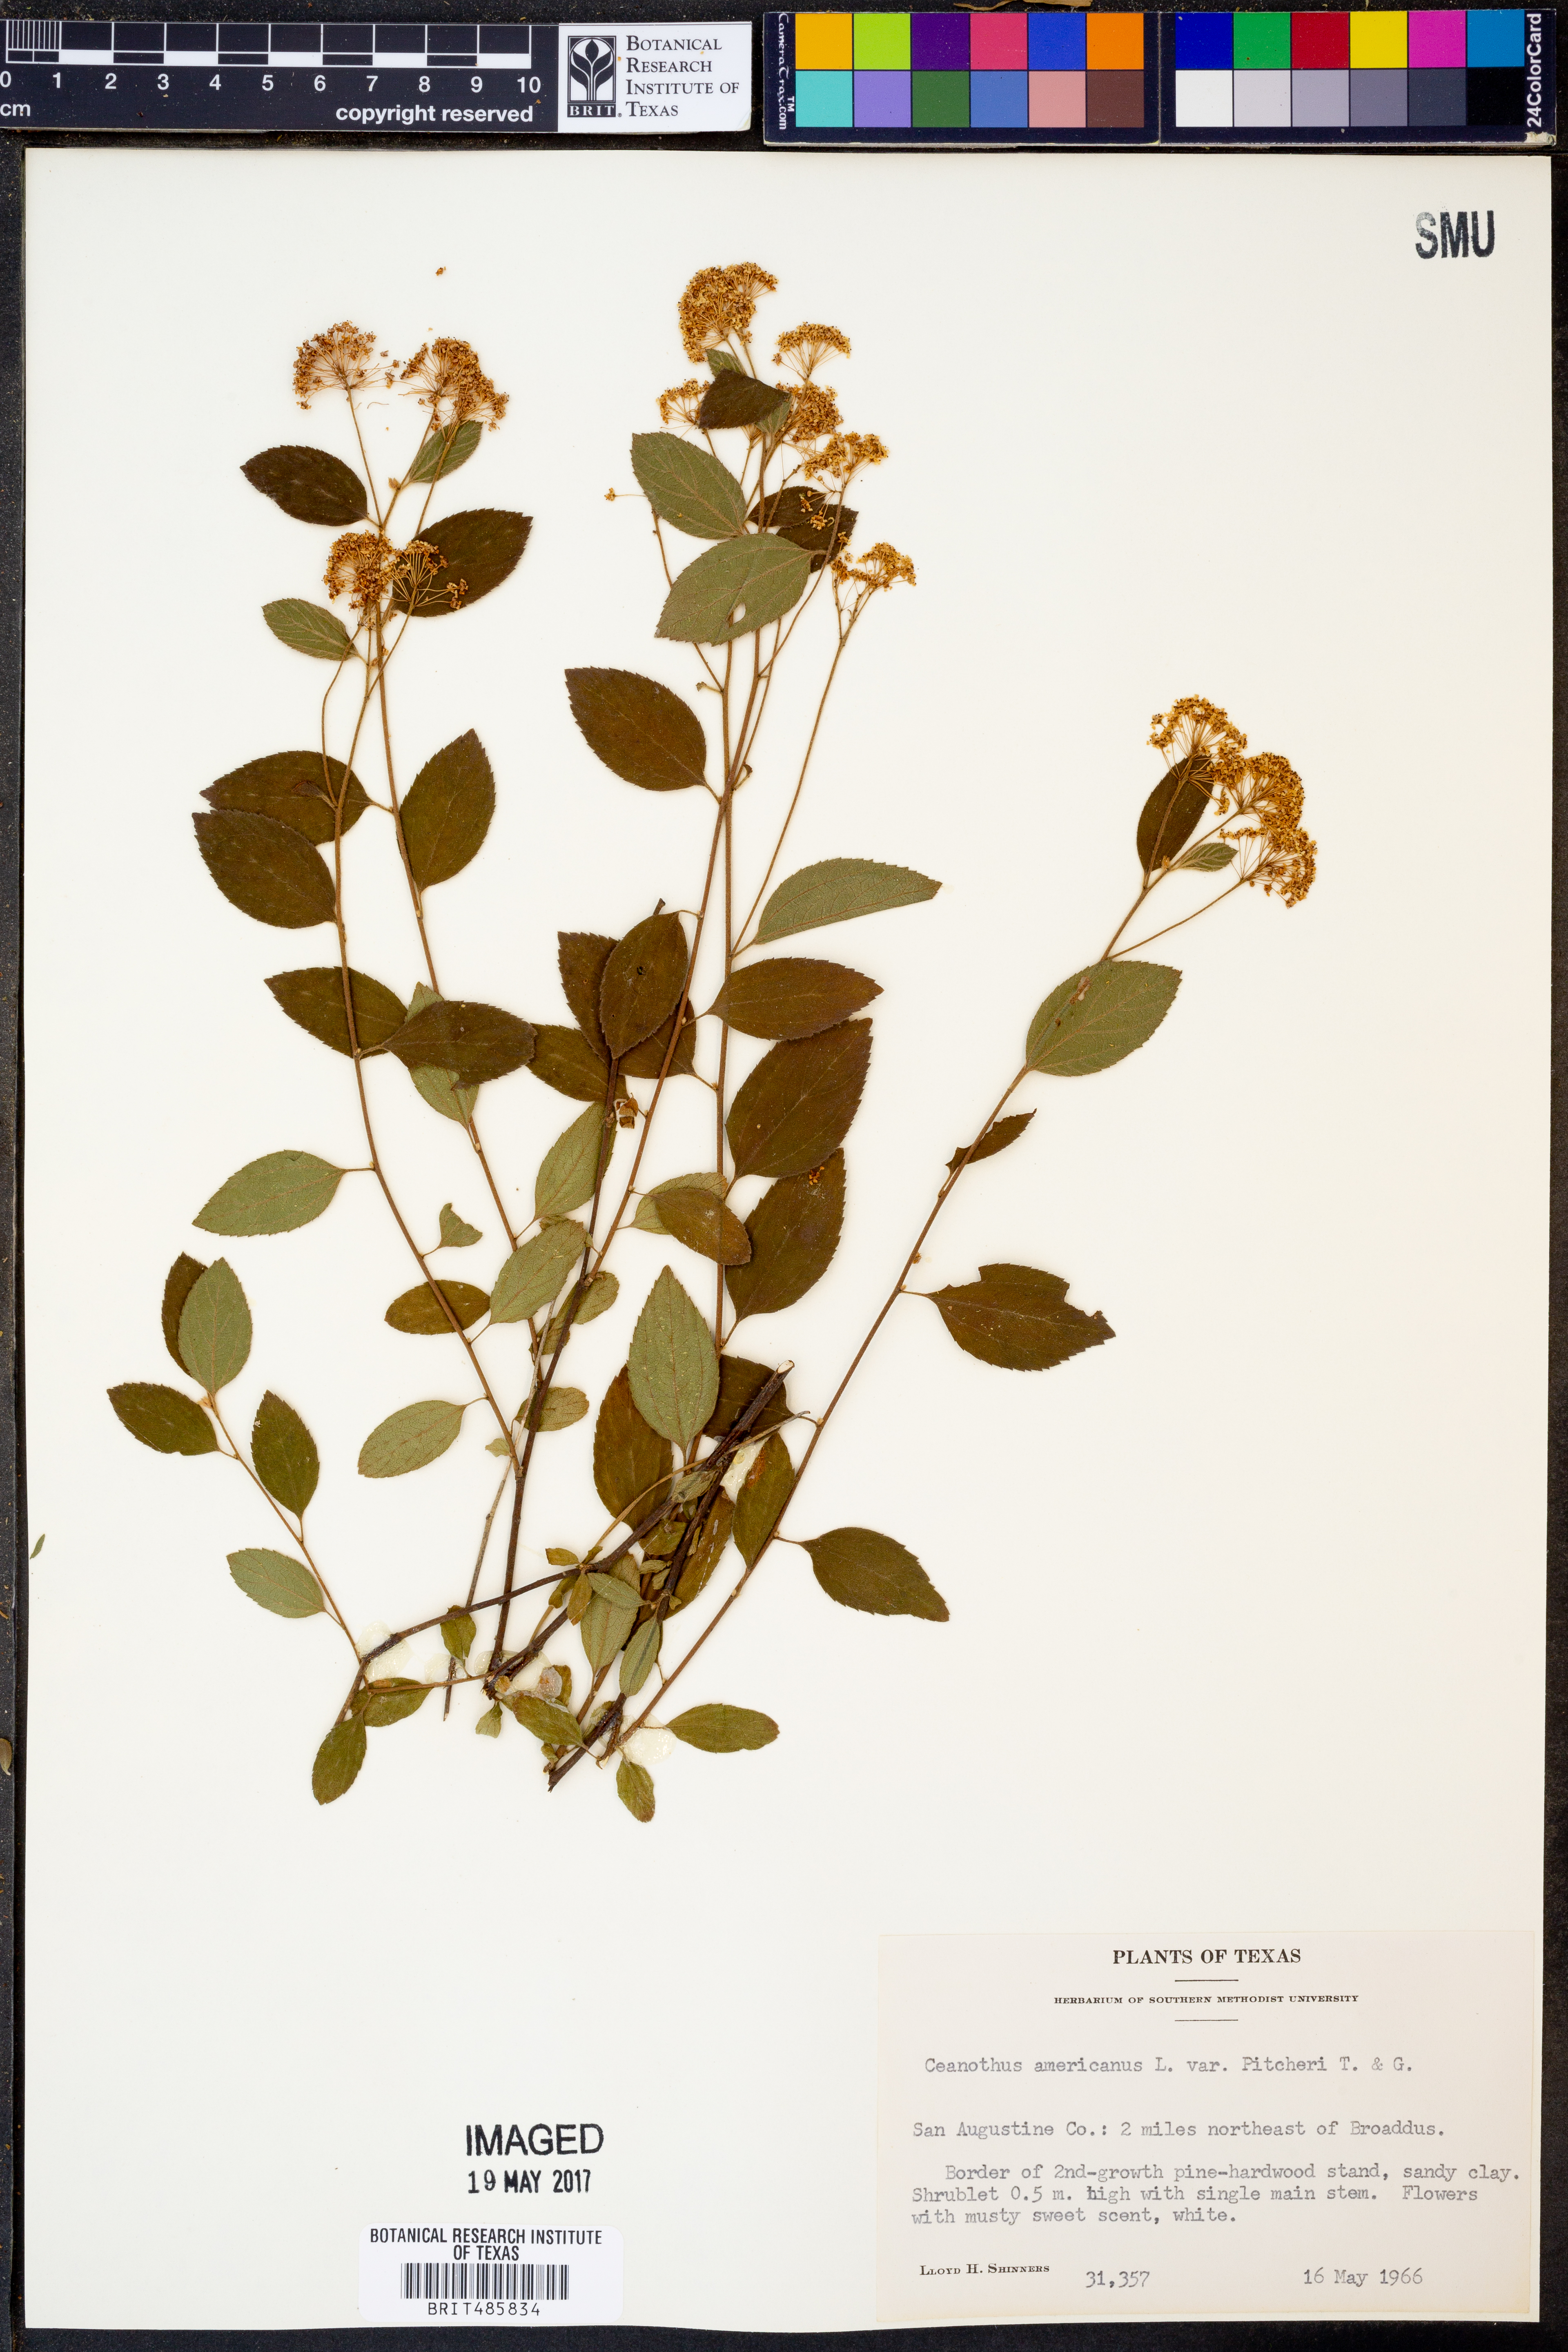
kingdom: Plantae
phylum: Tracheophyta
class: Magnoliopsida
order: Rosales
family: Rhamnaceae
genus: Ceanothus
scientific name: Ceanothus americanus
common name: Redroot
